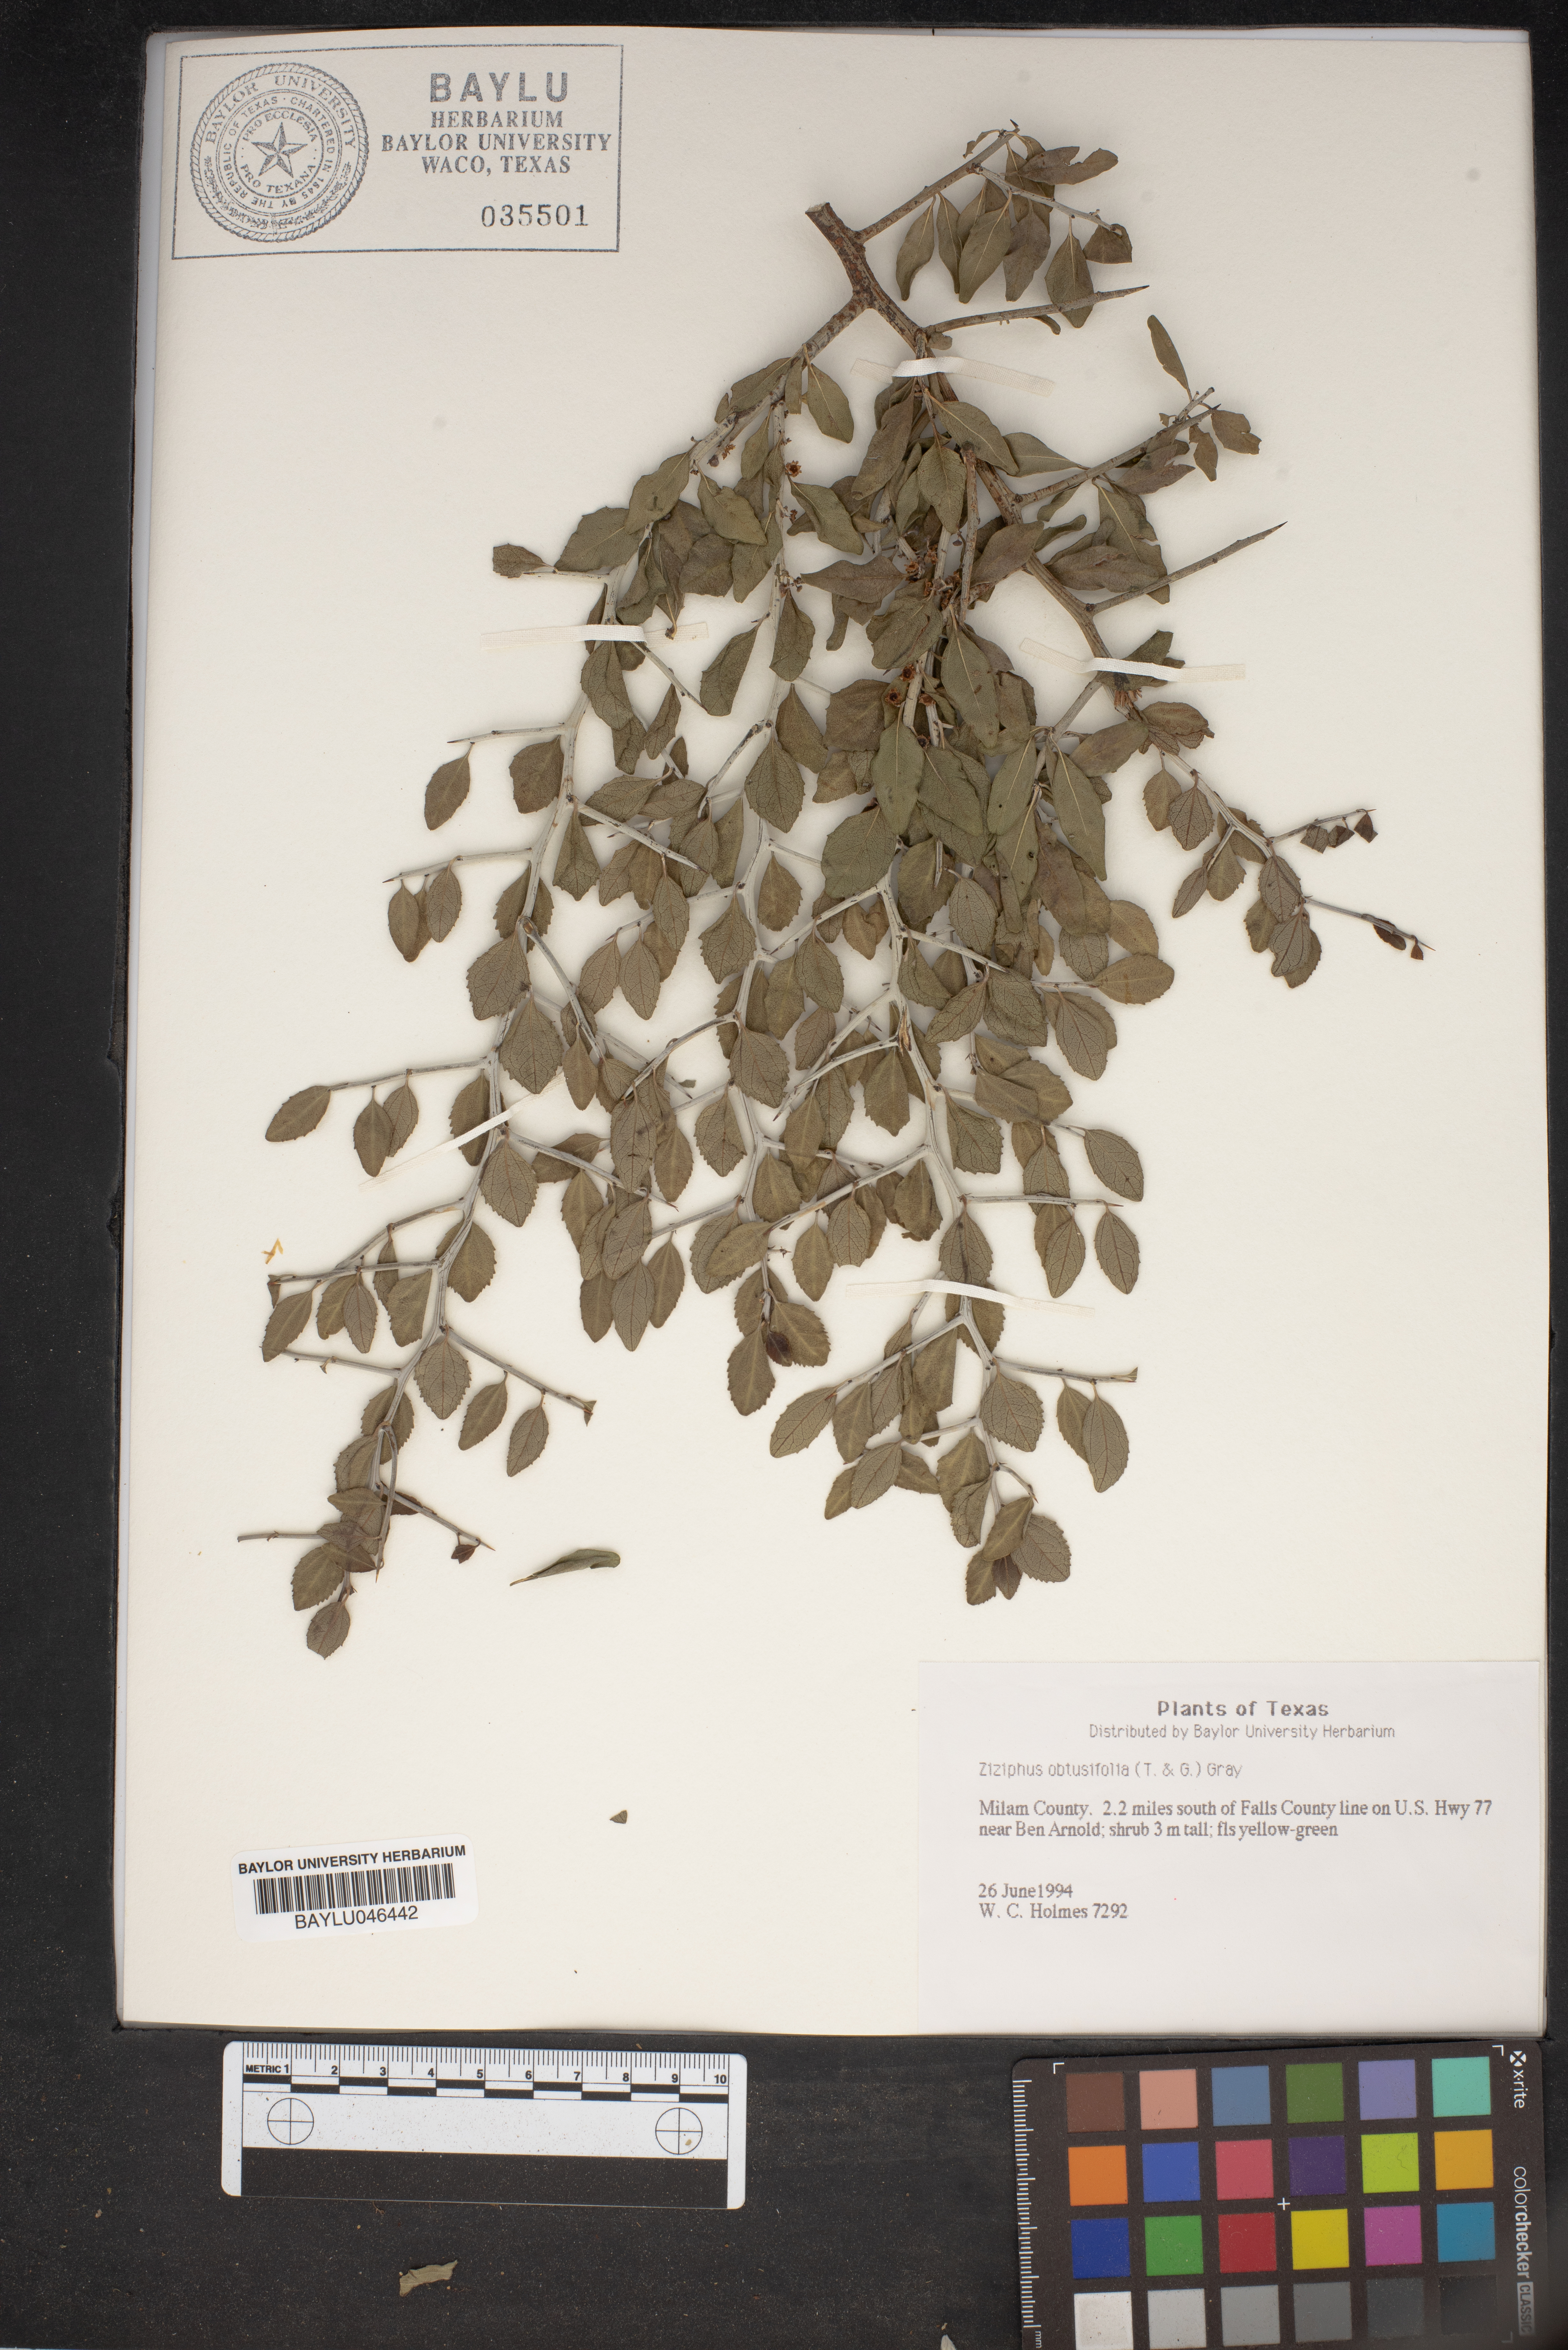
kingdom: Plantae
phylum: Tracheophyta
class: Magnoliopsida
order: Rosales
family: Rhamnaceae
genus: Sarcomphalus
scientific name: Sarcomphalus obtusifolius
